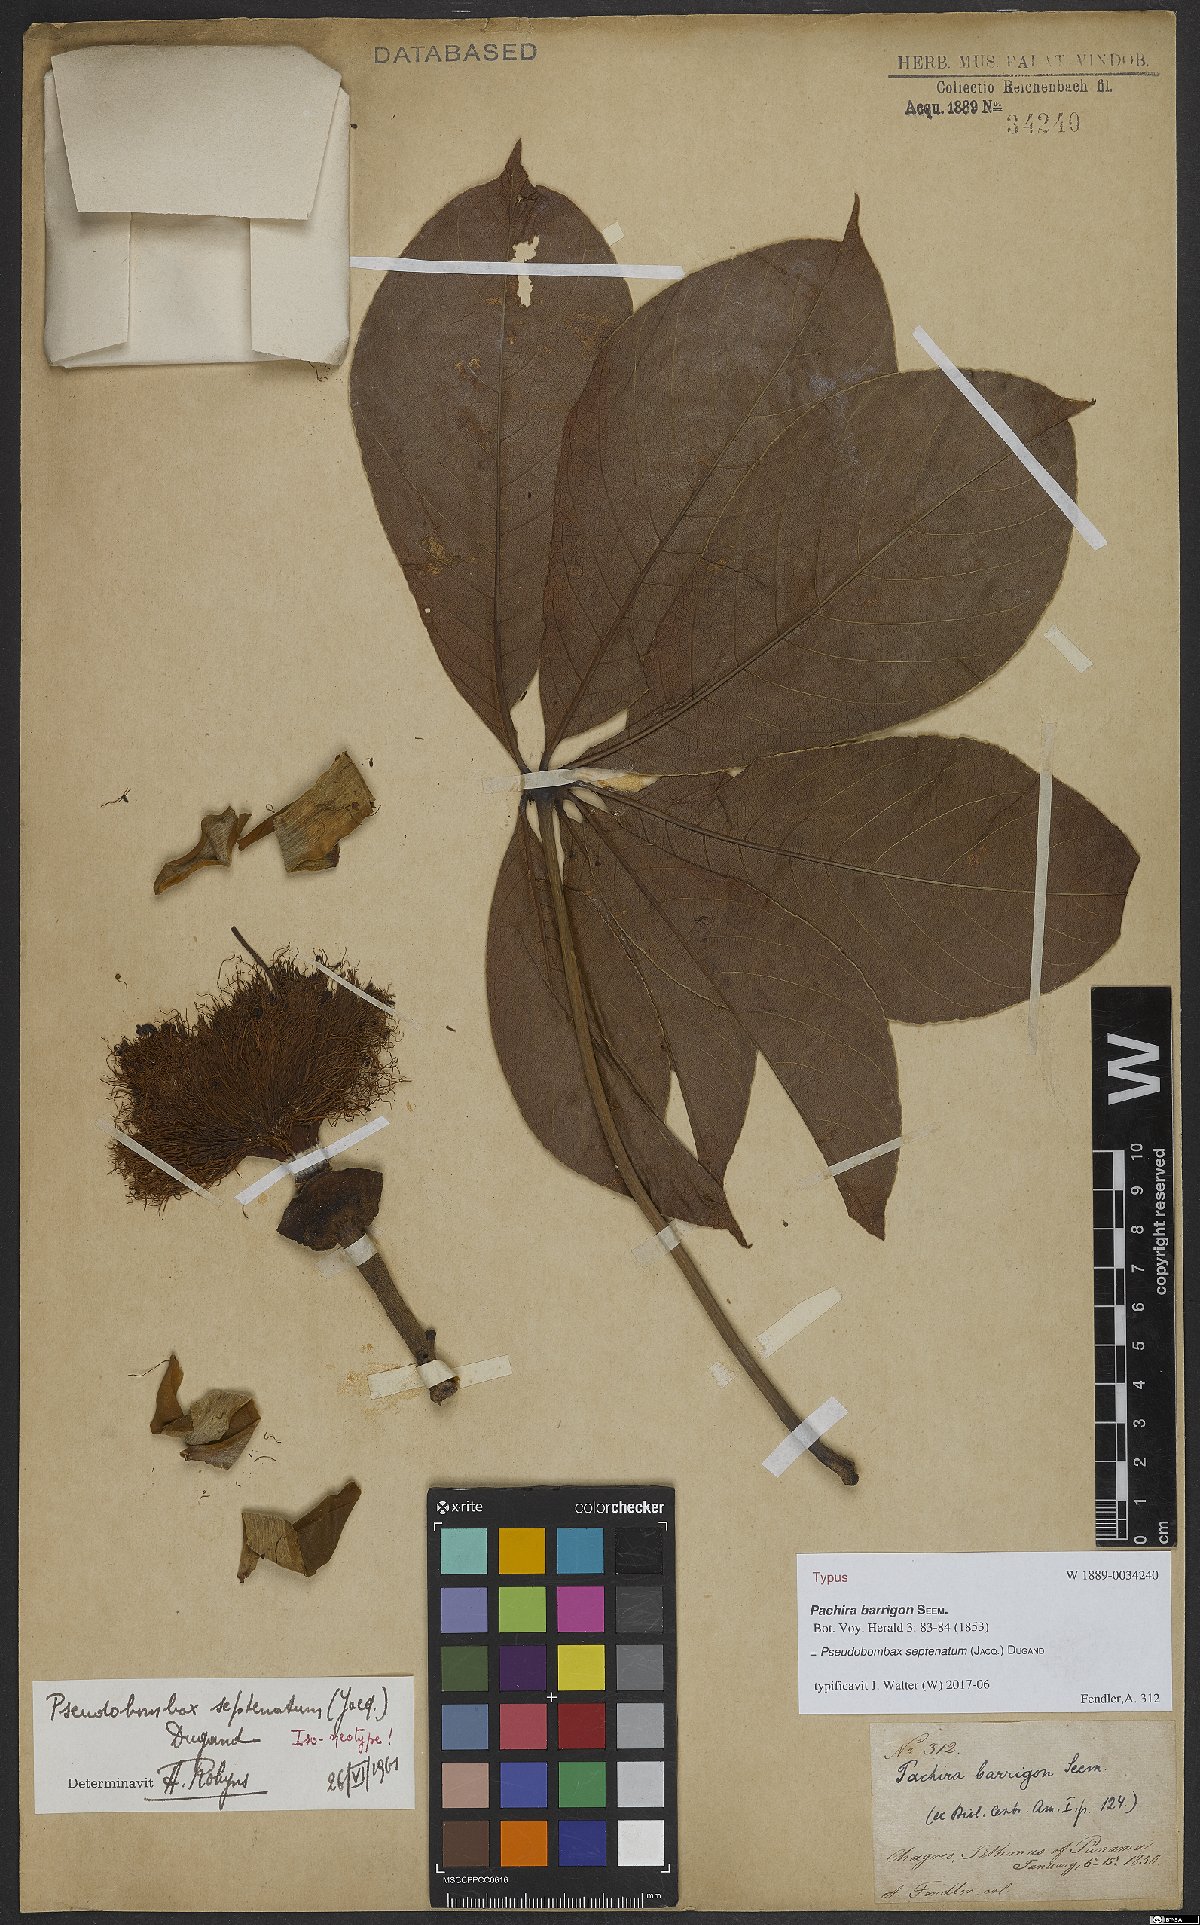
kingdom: Plantae
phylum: Tracheophyta
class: Magnoliopsida
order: Malvales
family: Malvaceae
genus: Pseudobombax
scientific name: Pseudobombax septenatum
